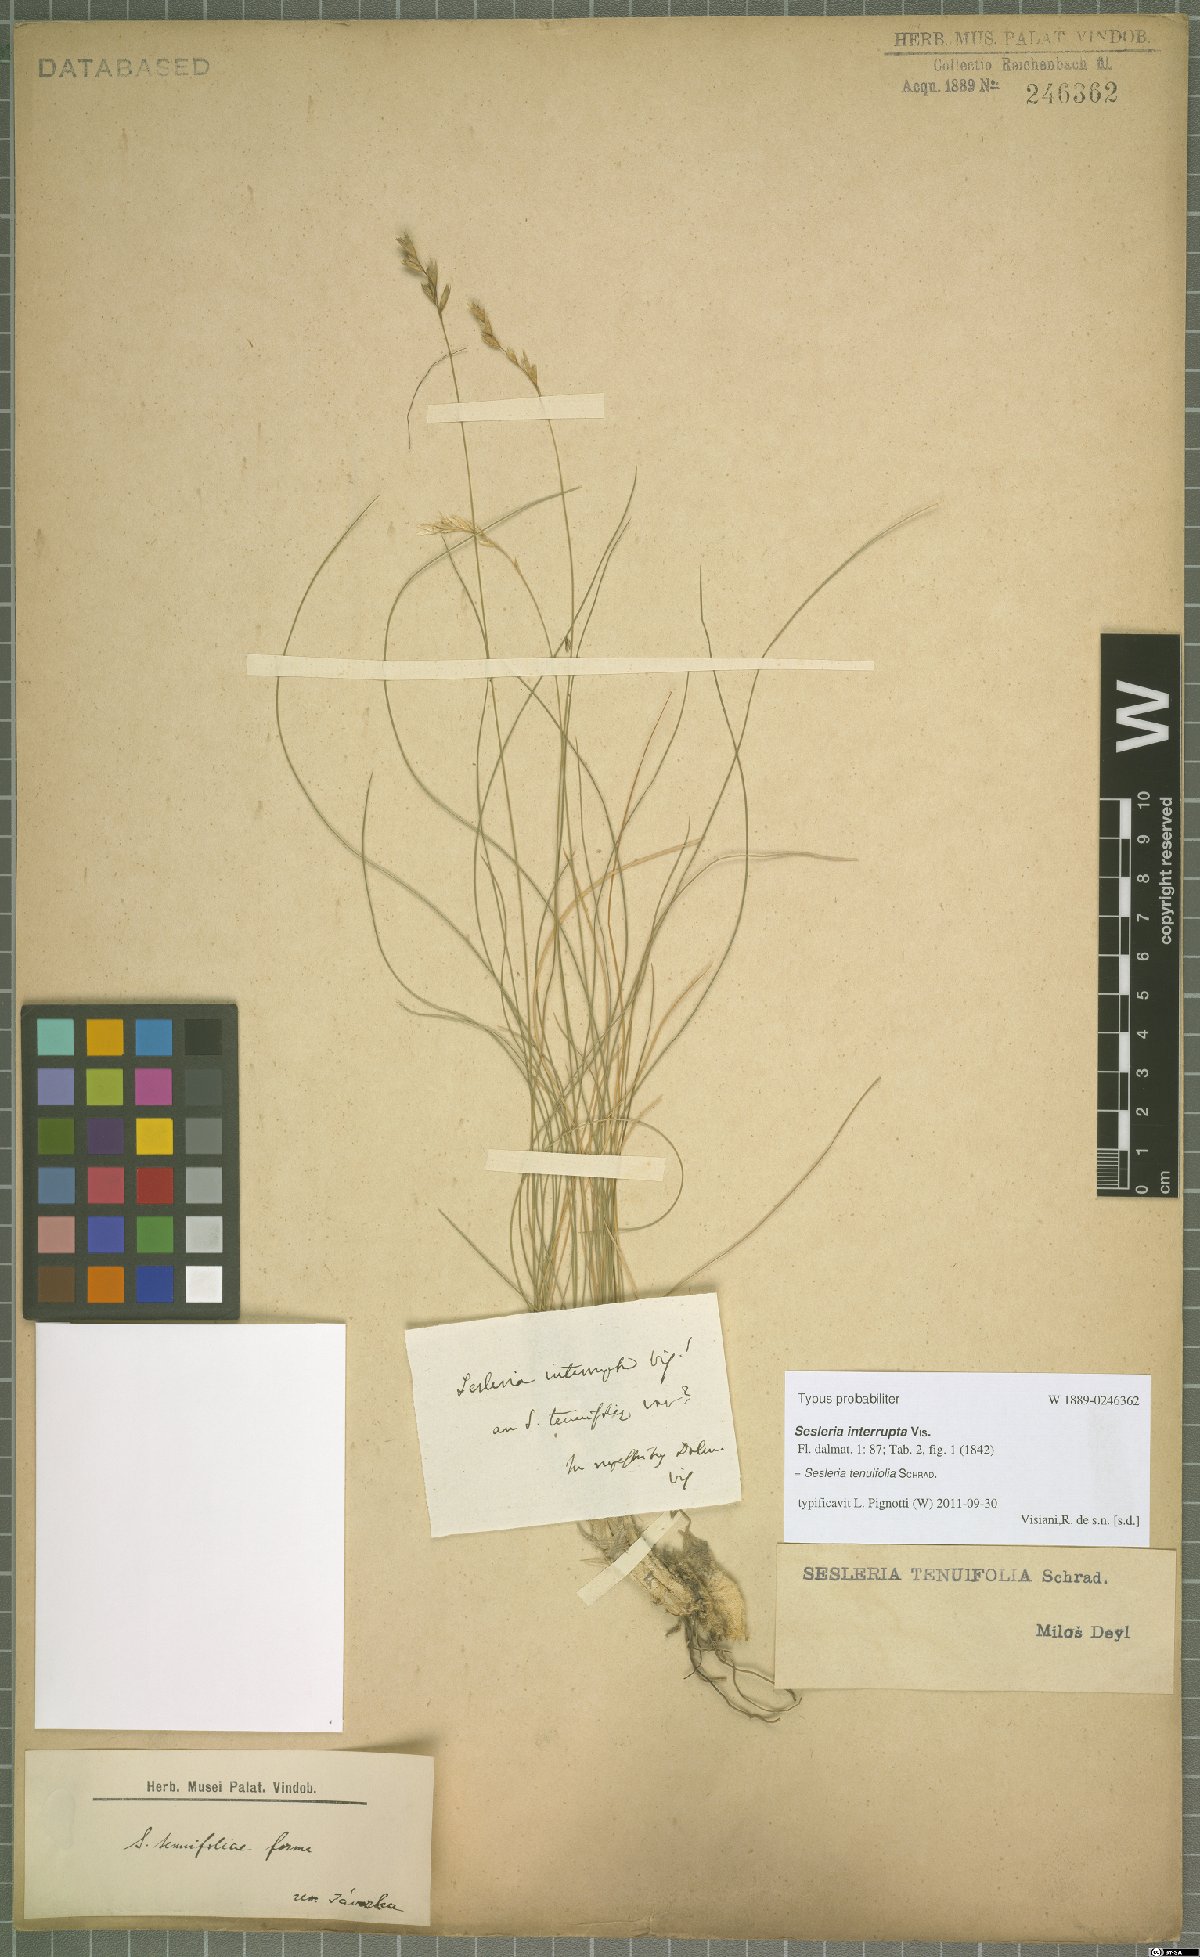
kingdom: Plantae
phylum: Tracheophyta
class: Liliopsida
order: Poales
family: Poaceae
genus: Sesleria
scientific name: Sesleria juncifolia
